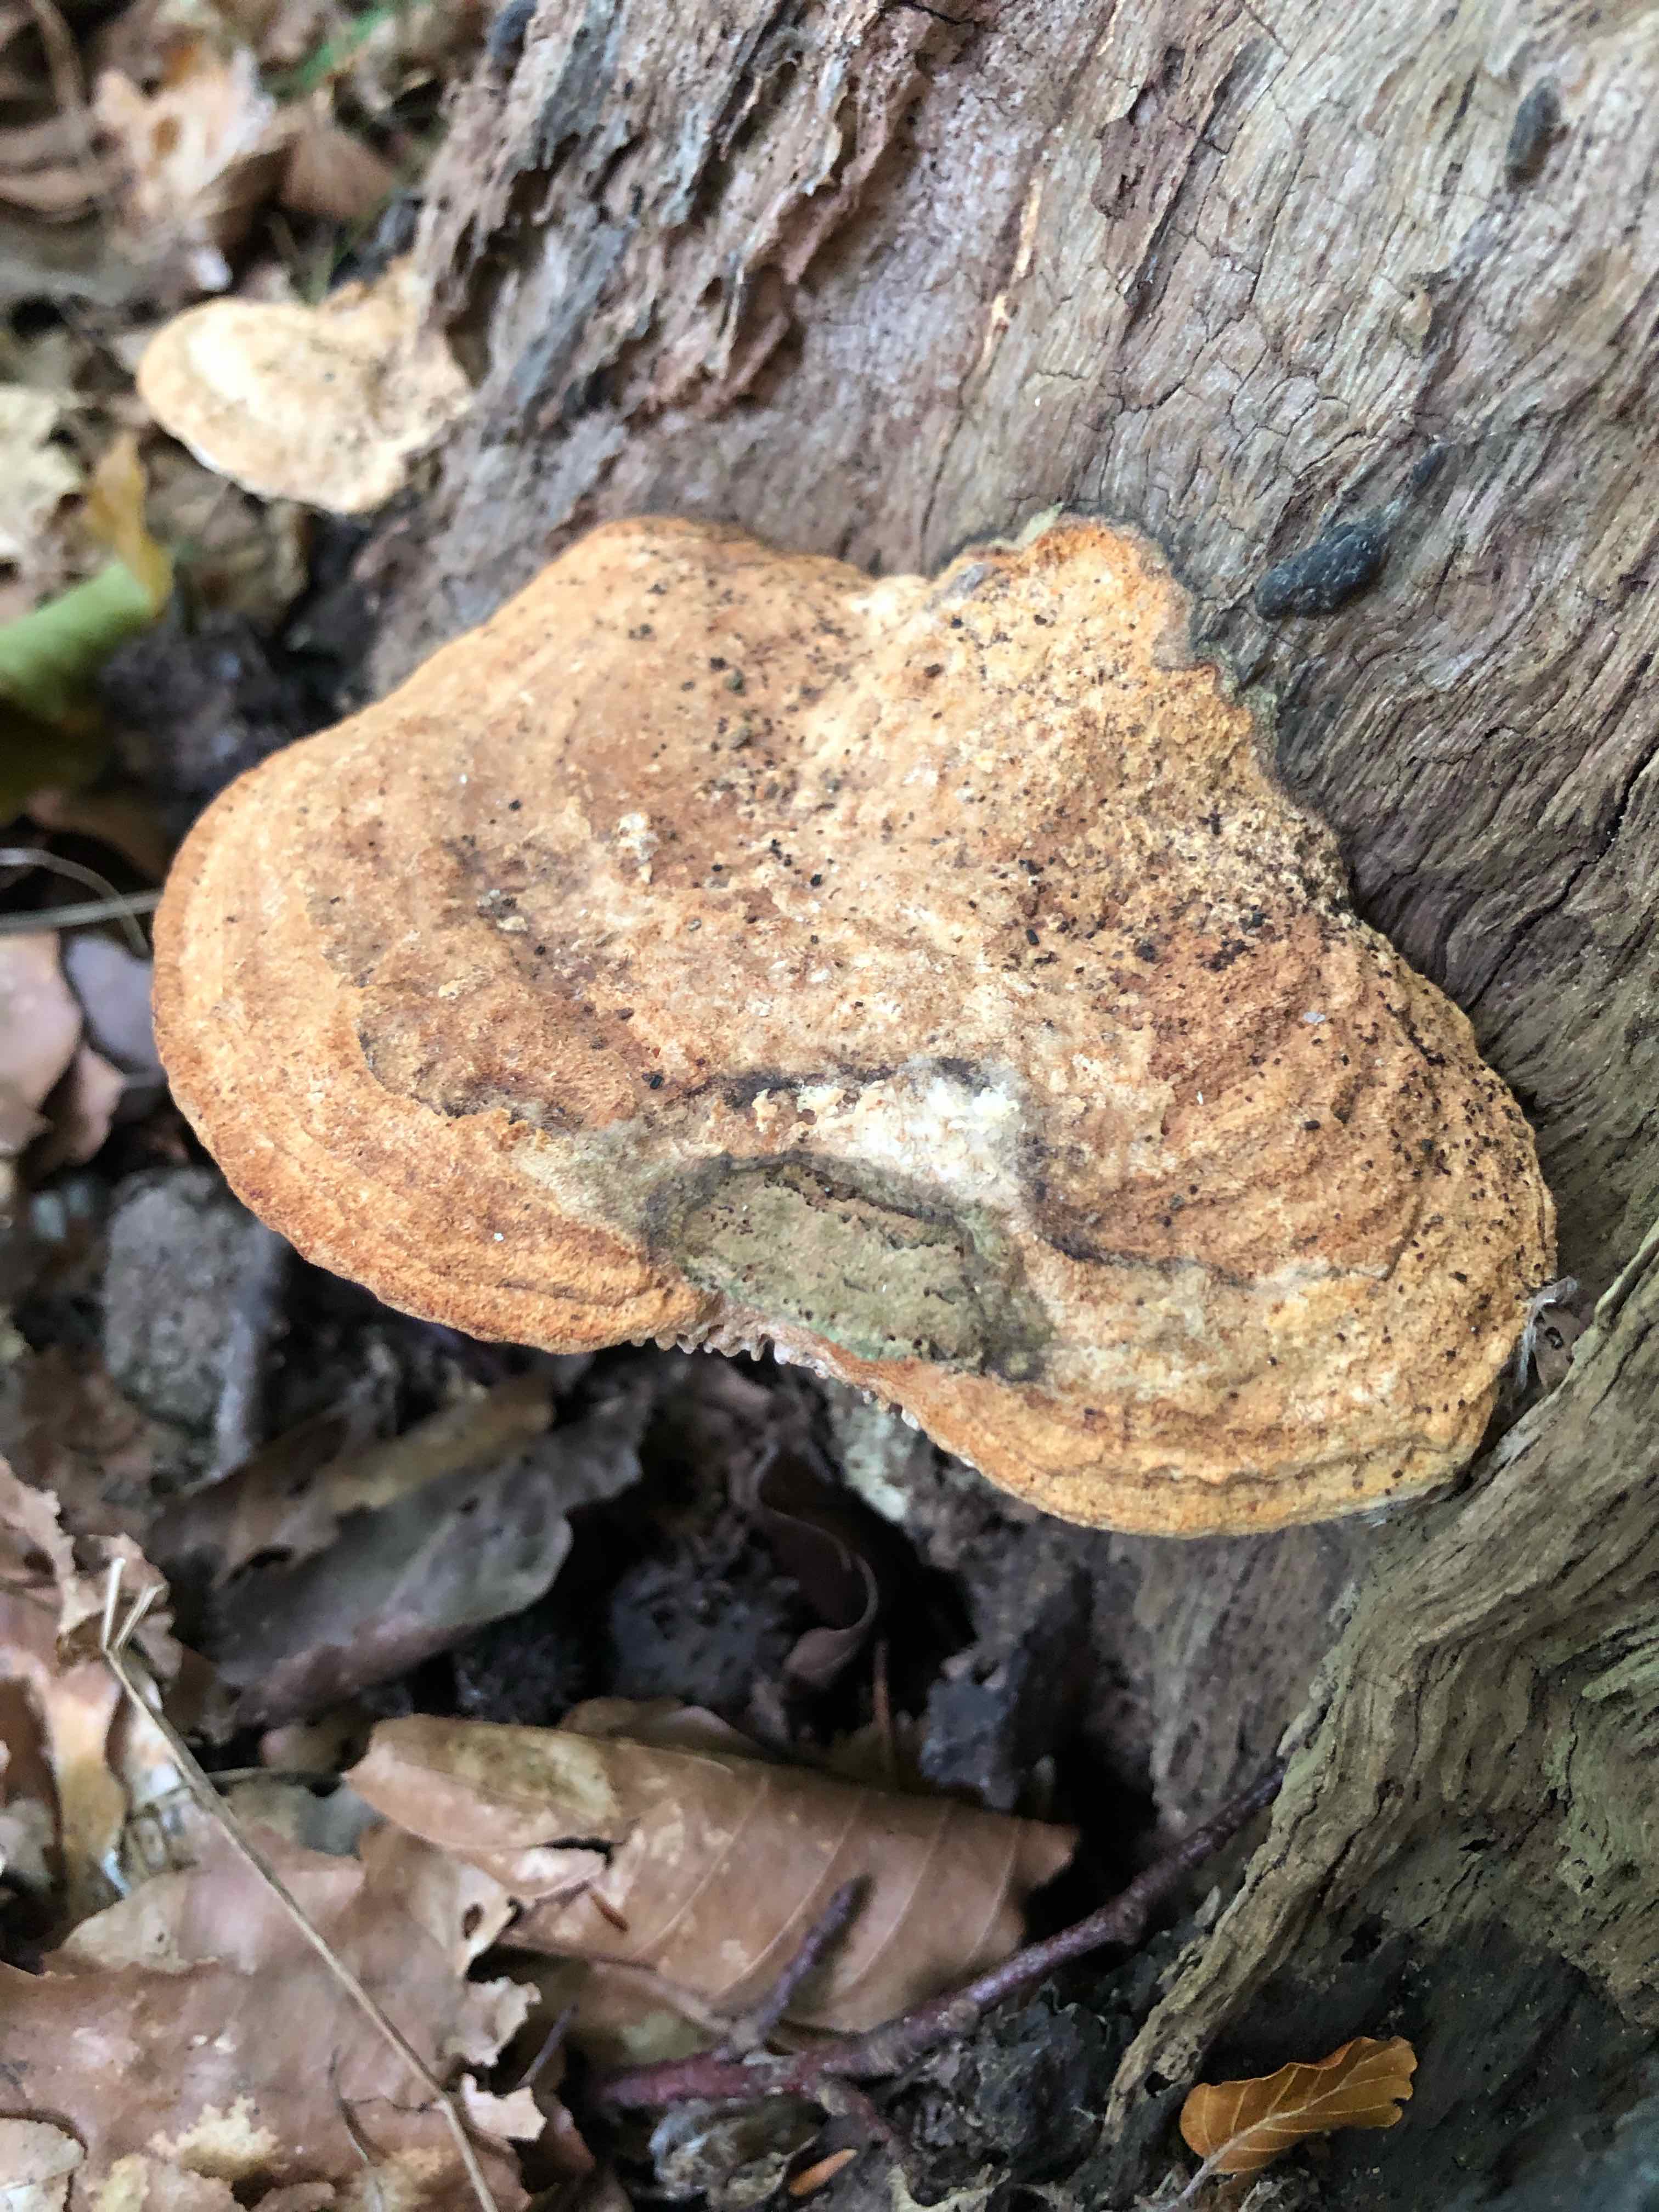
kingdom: Fungi
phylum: Basidiomycota
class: Agaricomycetes
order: Polyporales
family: Fomitopsidaceae
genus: Daedalea
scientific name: Daedalea quercina
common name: ege-labyrintsvamp
